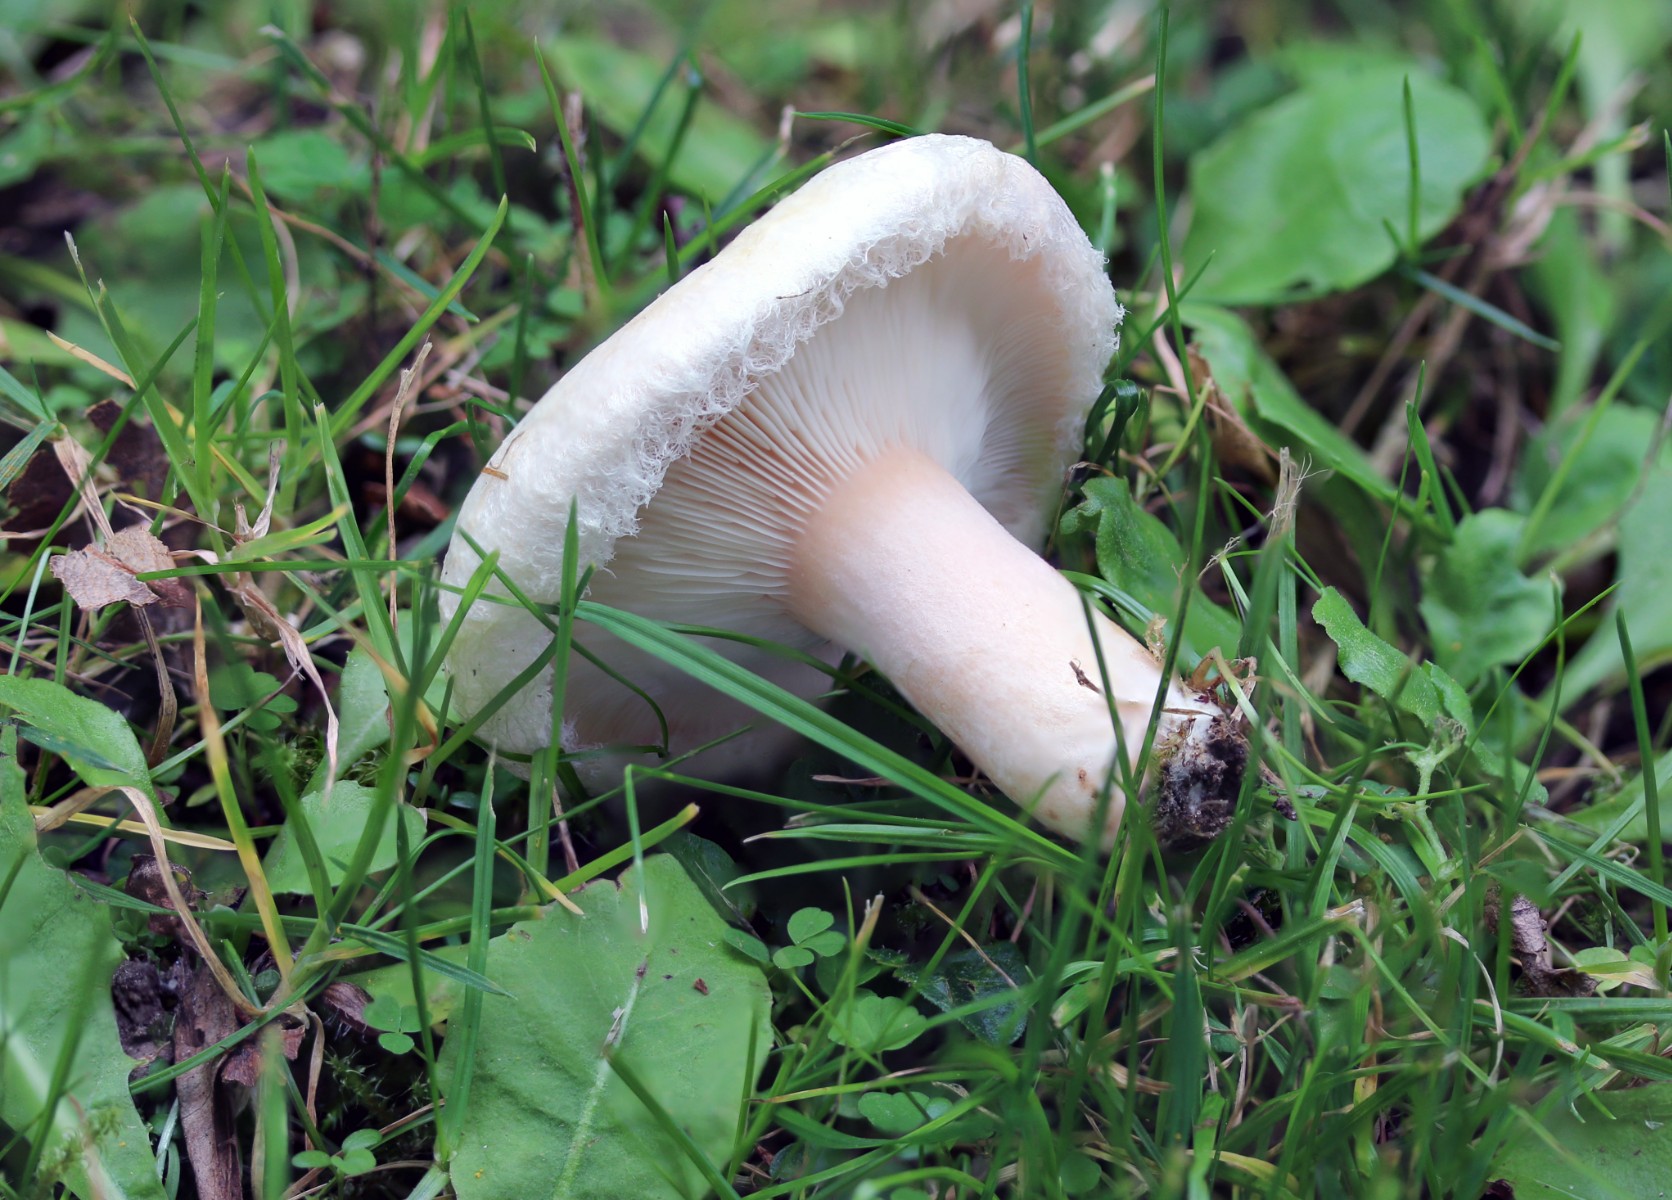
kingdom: Fungi
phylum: Basidiomycota
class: Agaricomycetes
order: Russulales
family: Russulaceae
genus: Lactarius
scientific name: Lactarius torminosus
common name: skægget mælkehat
